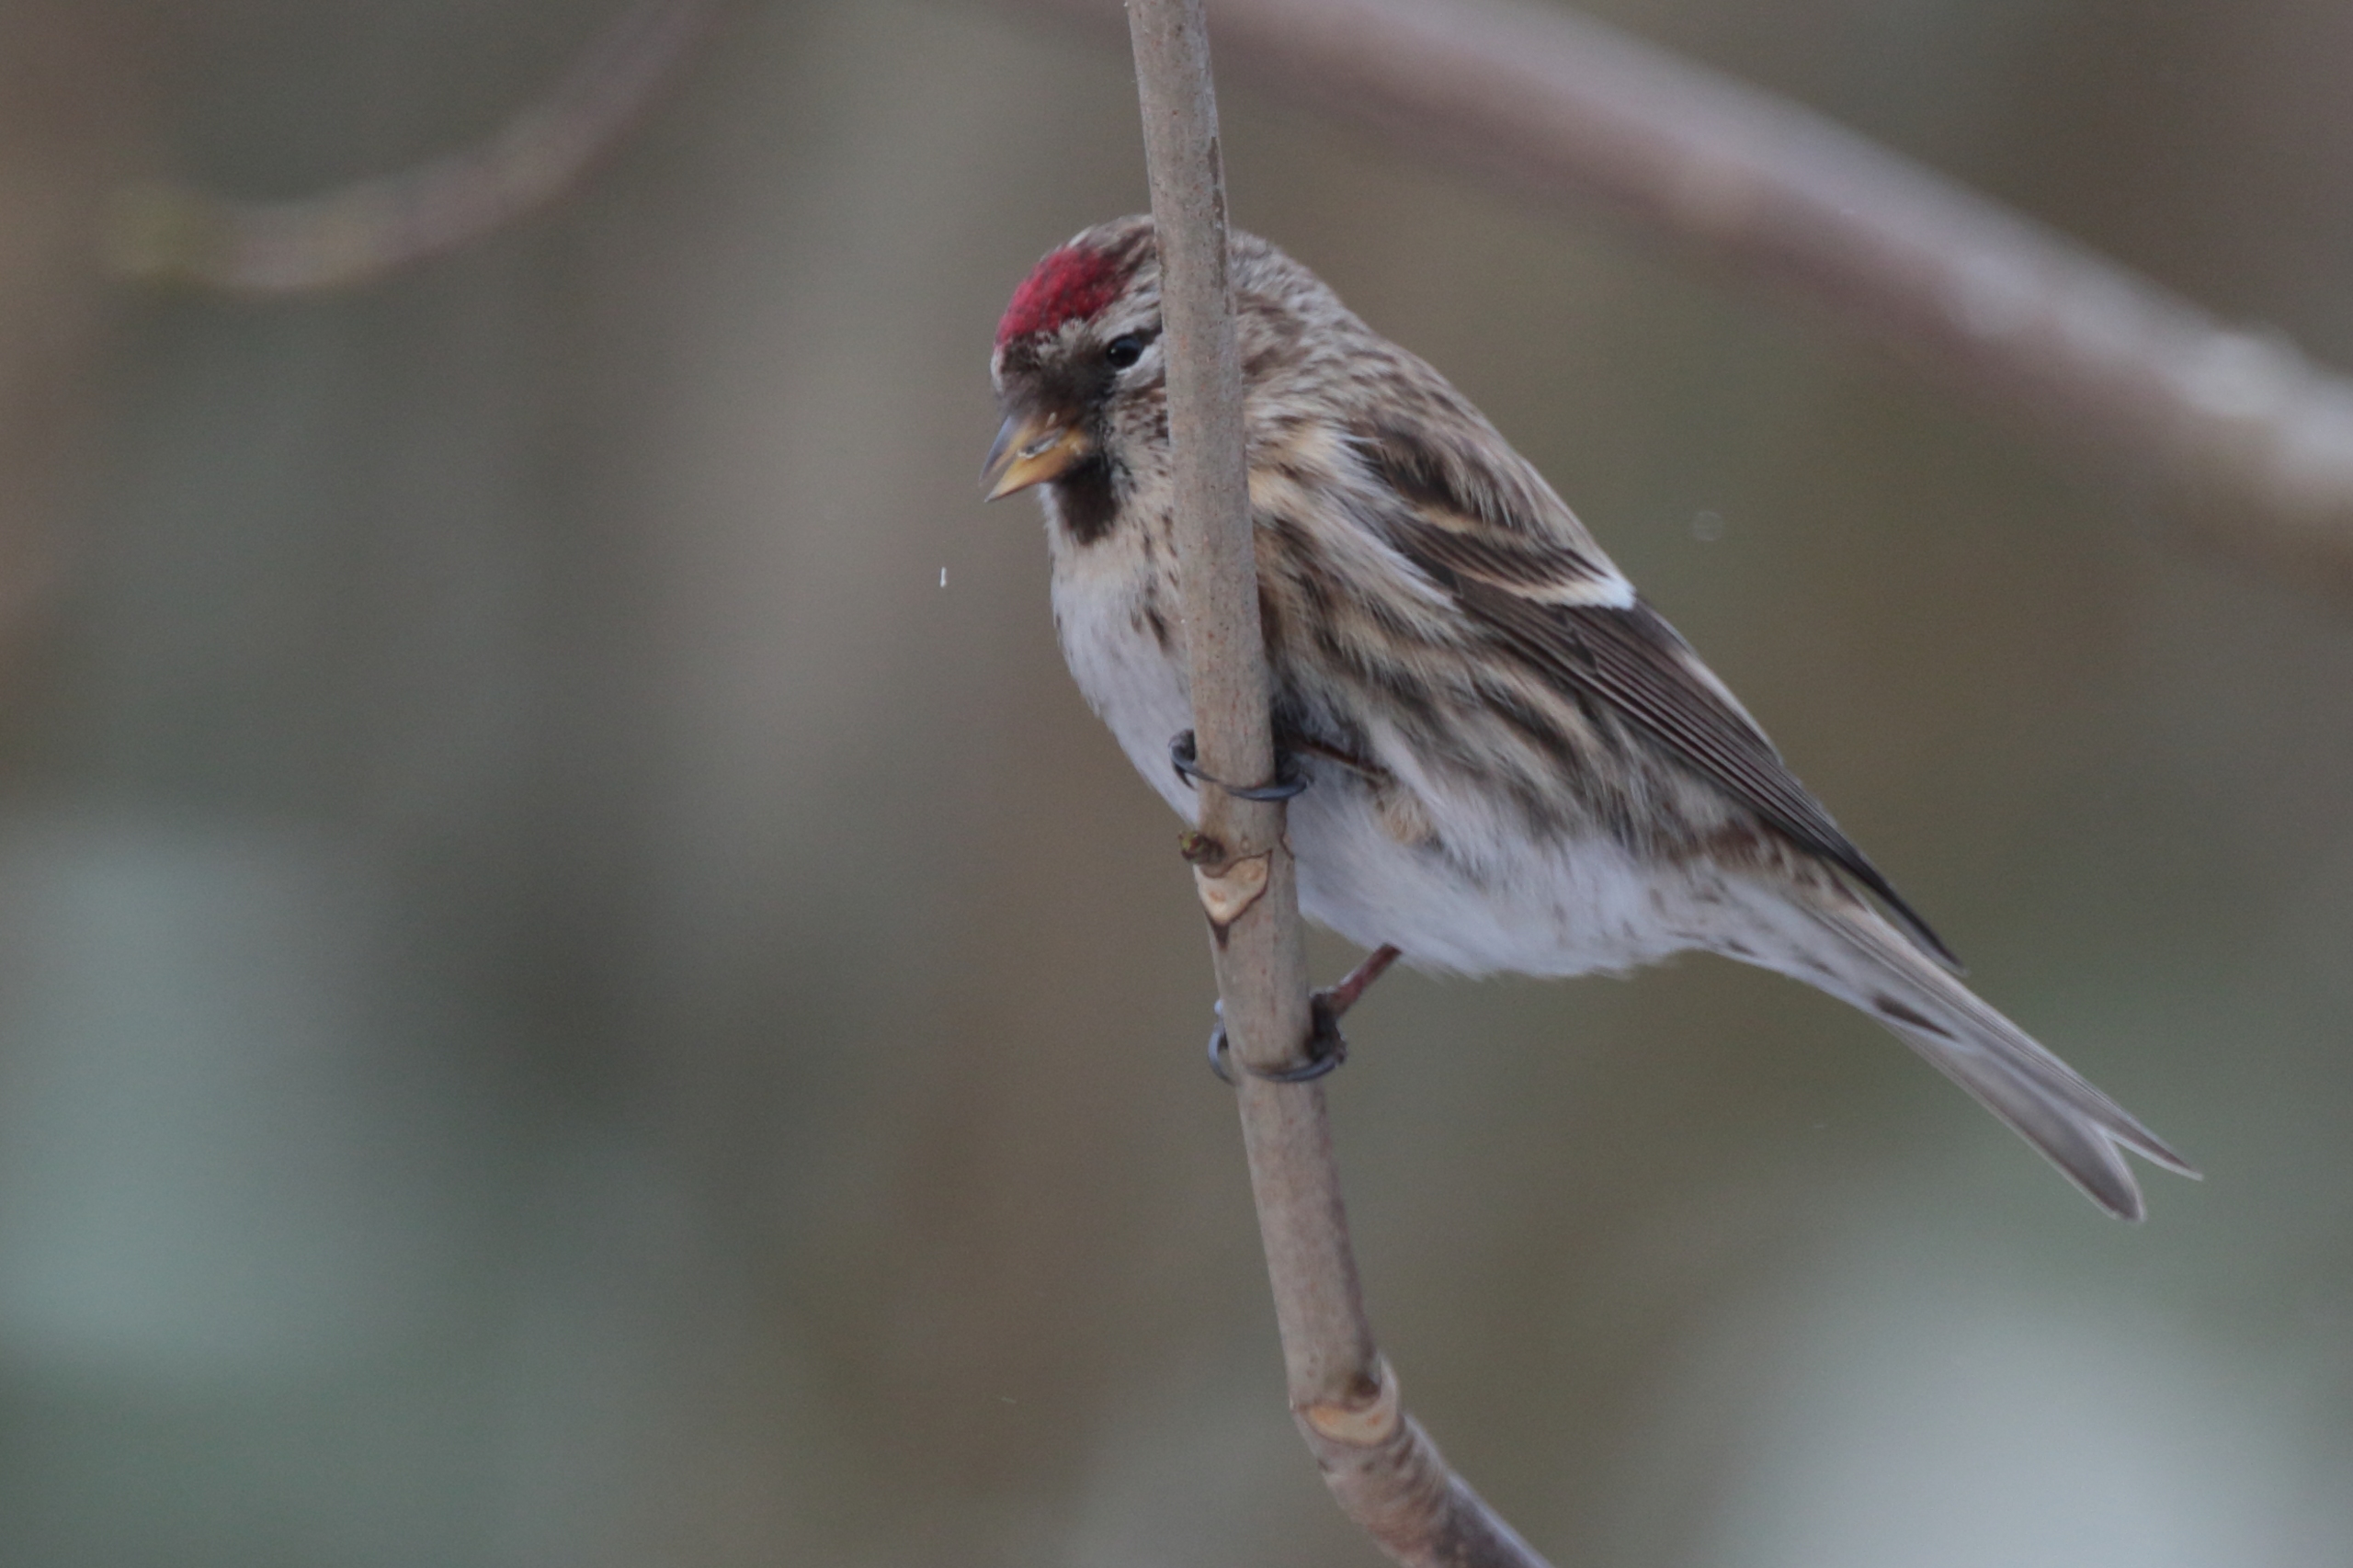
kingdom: Animalia
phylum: Chordata
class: Aves
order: Passeriformes
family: Fringillidae
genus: Acanthis
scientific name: Acanthis flammea
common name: Nordlig gråsisken
